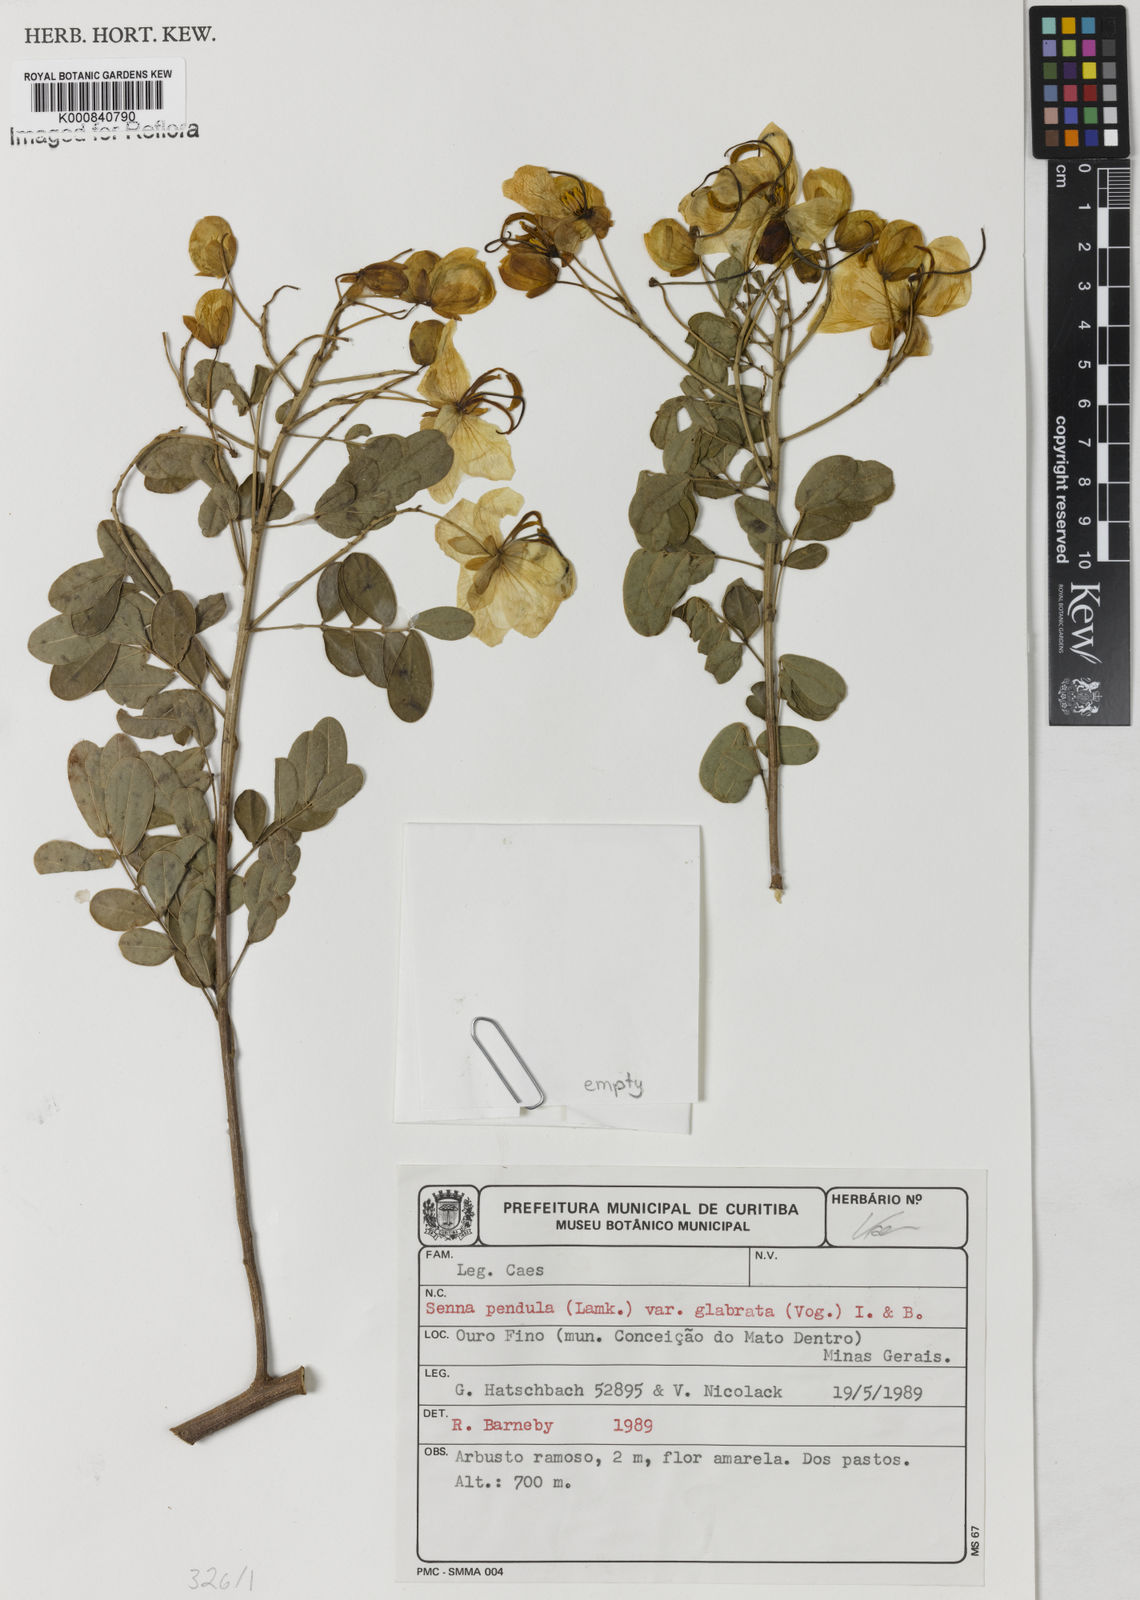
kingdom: Plantae
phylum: Tracheophyta
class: Magnoliopsida
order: Fabales
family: Fabaceae
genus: Senna
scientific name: Senna pendula
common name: Easter cassia
